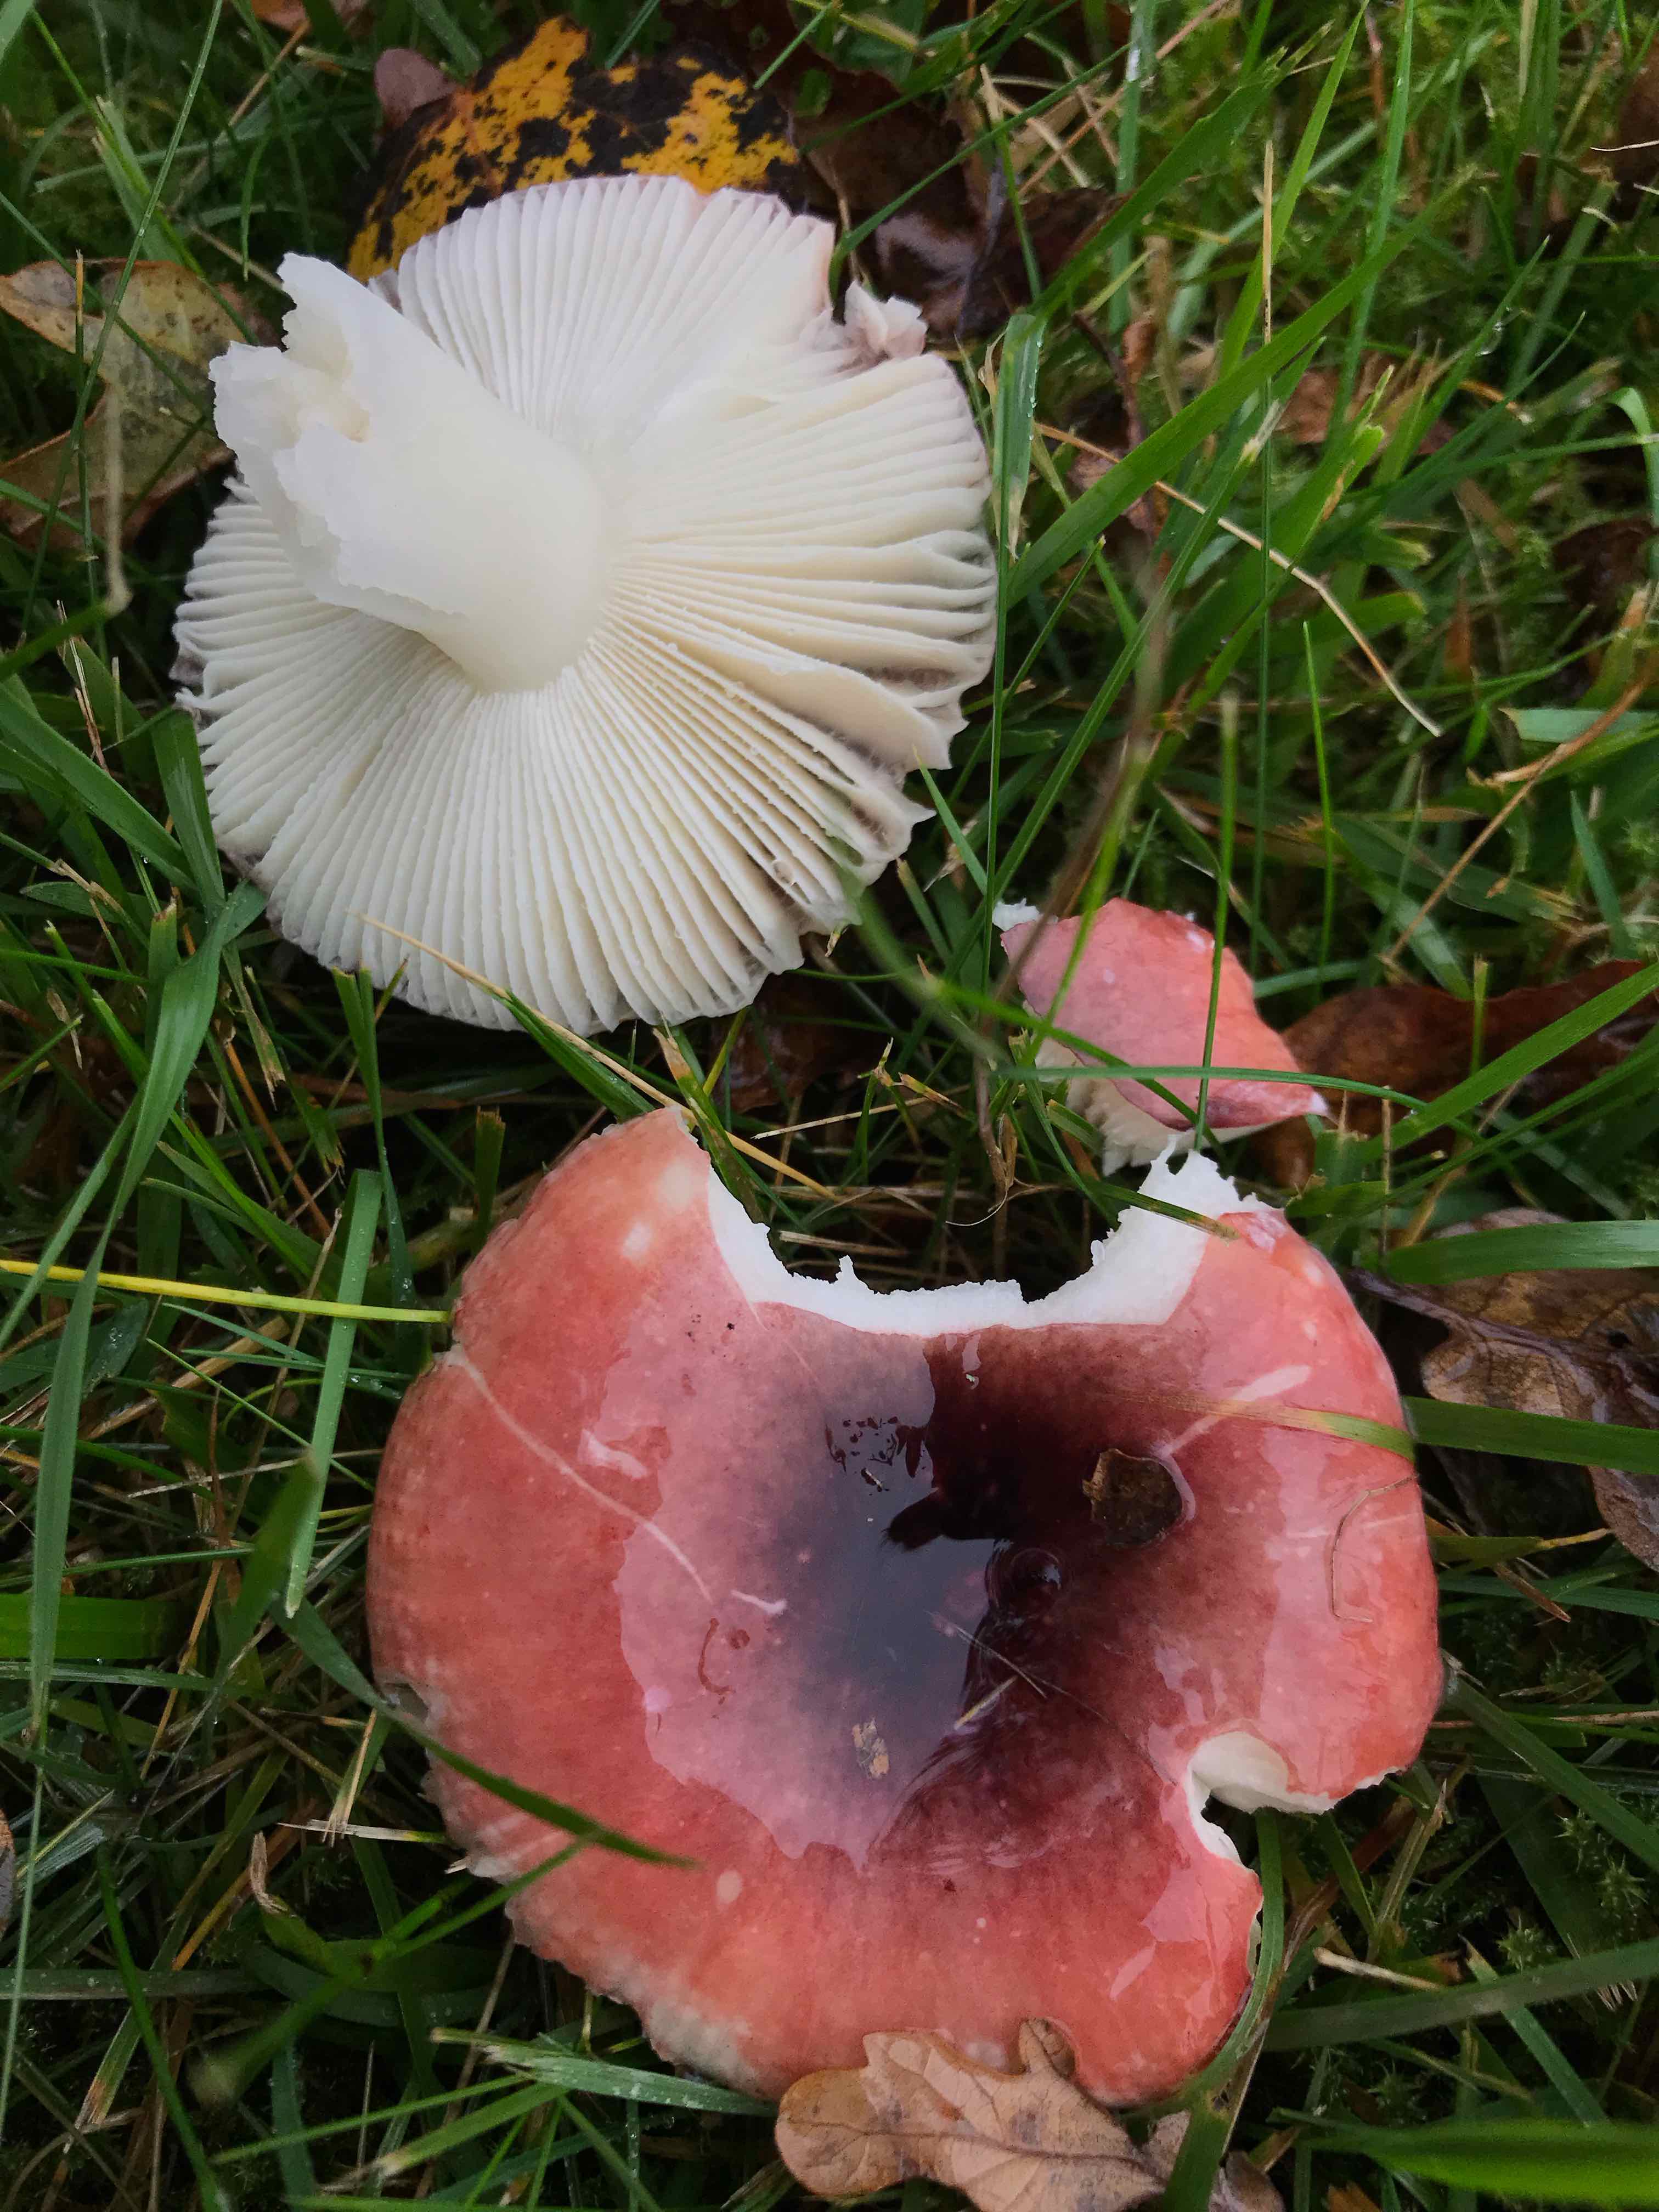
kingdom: Fungi
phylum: Basidiomycota
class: Agaricomycetes
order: Russulales
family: Russulaceae
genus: Russula
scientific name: Russula fragilis
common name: savbladet skørhat
